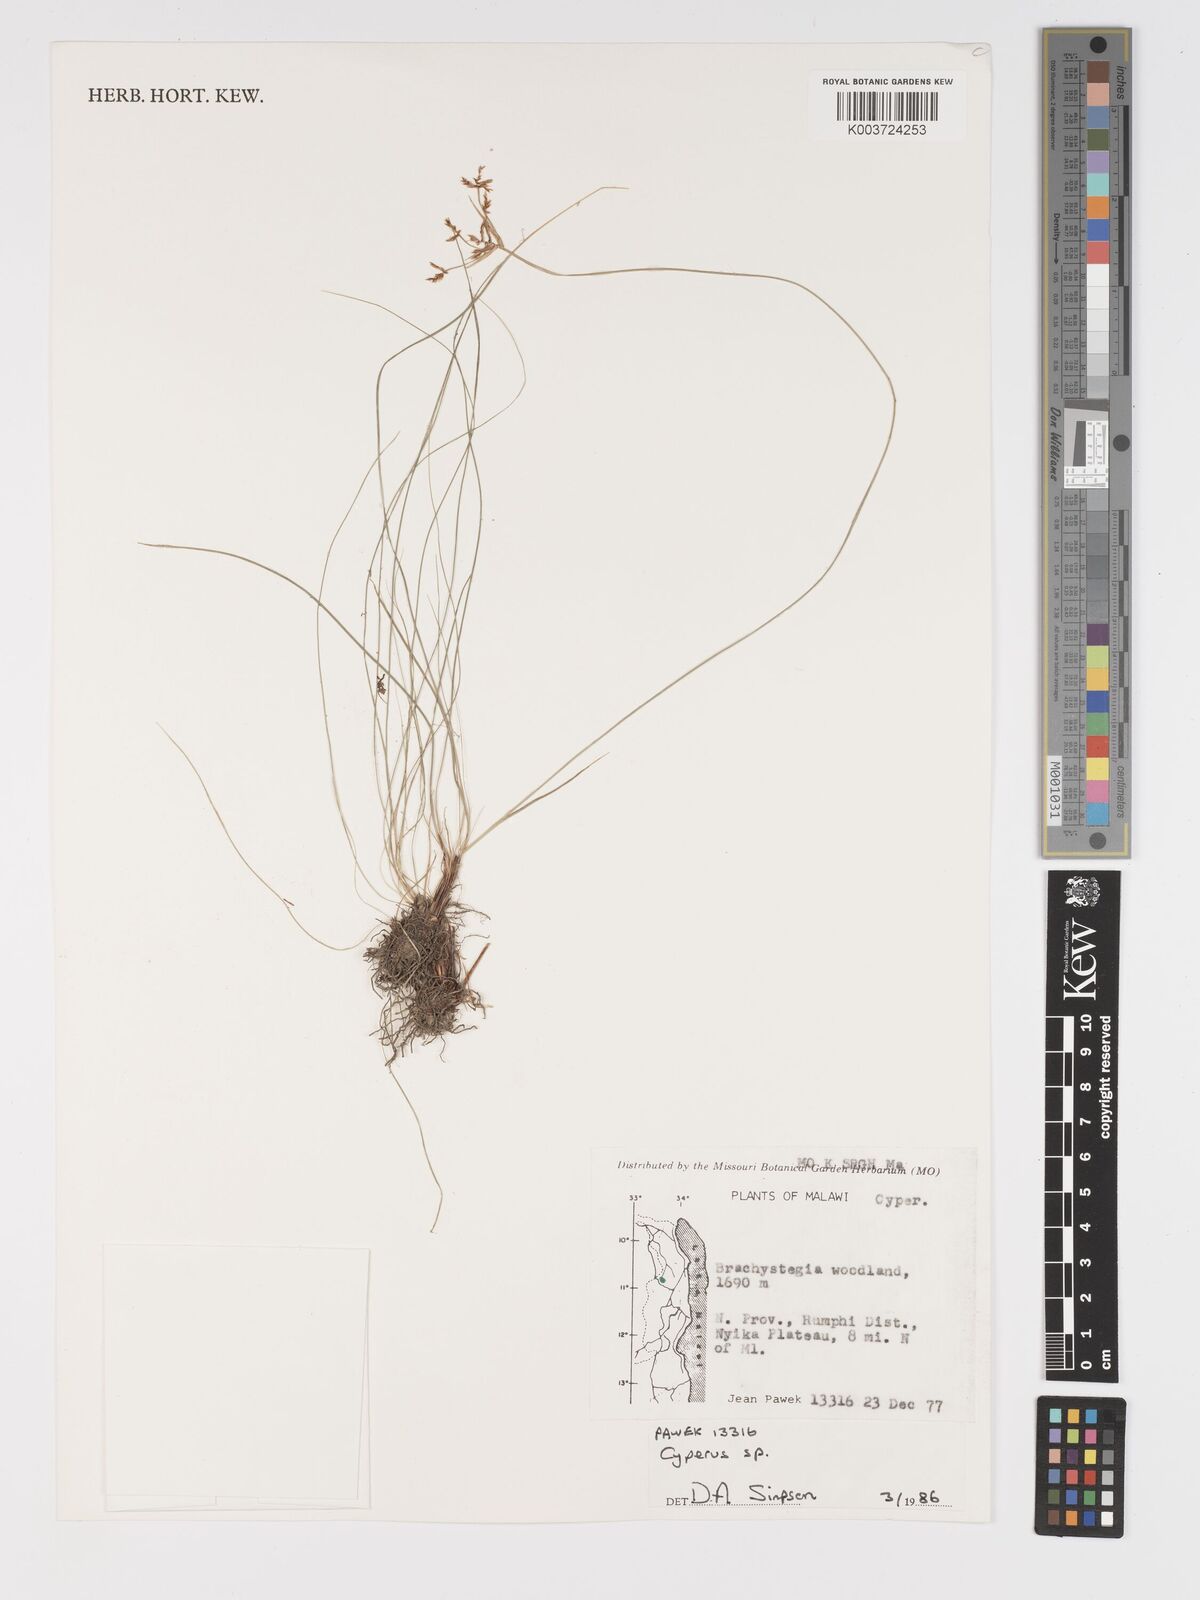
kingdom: Plantae
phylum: Tracheophyta
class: Liliopsida
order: Poales
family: Cyperaceae
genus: Cyperus
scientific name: Cyperus
